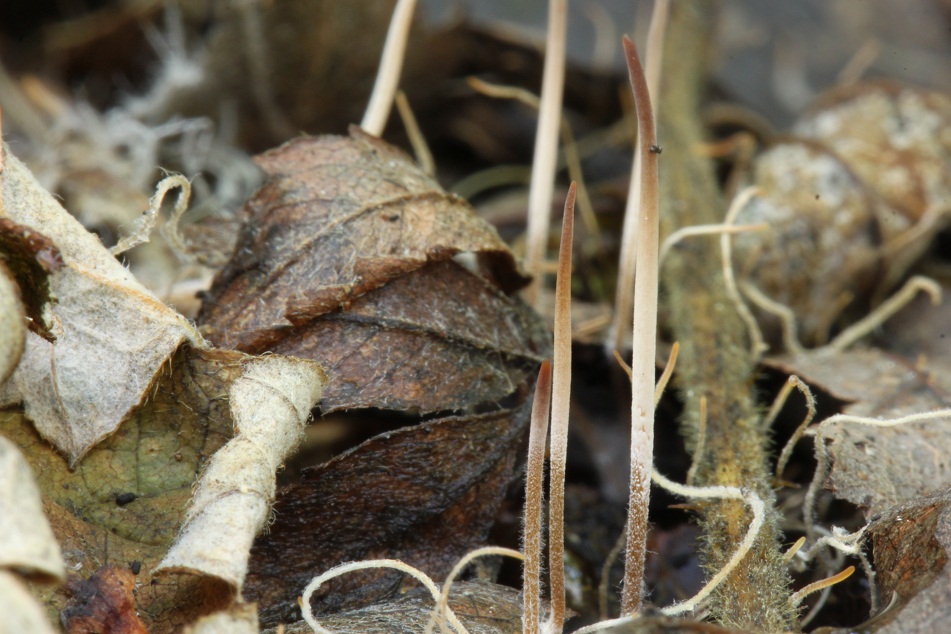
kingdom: Fungi
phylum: Basidiomycota
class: Agaricomycetes
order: Agaricales
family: Typhulaceae
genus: Typhula
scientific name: Typhula juncea
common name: trådagtig rørkølle
